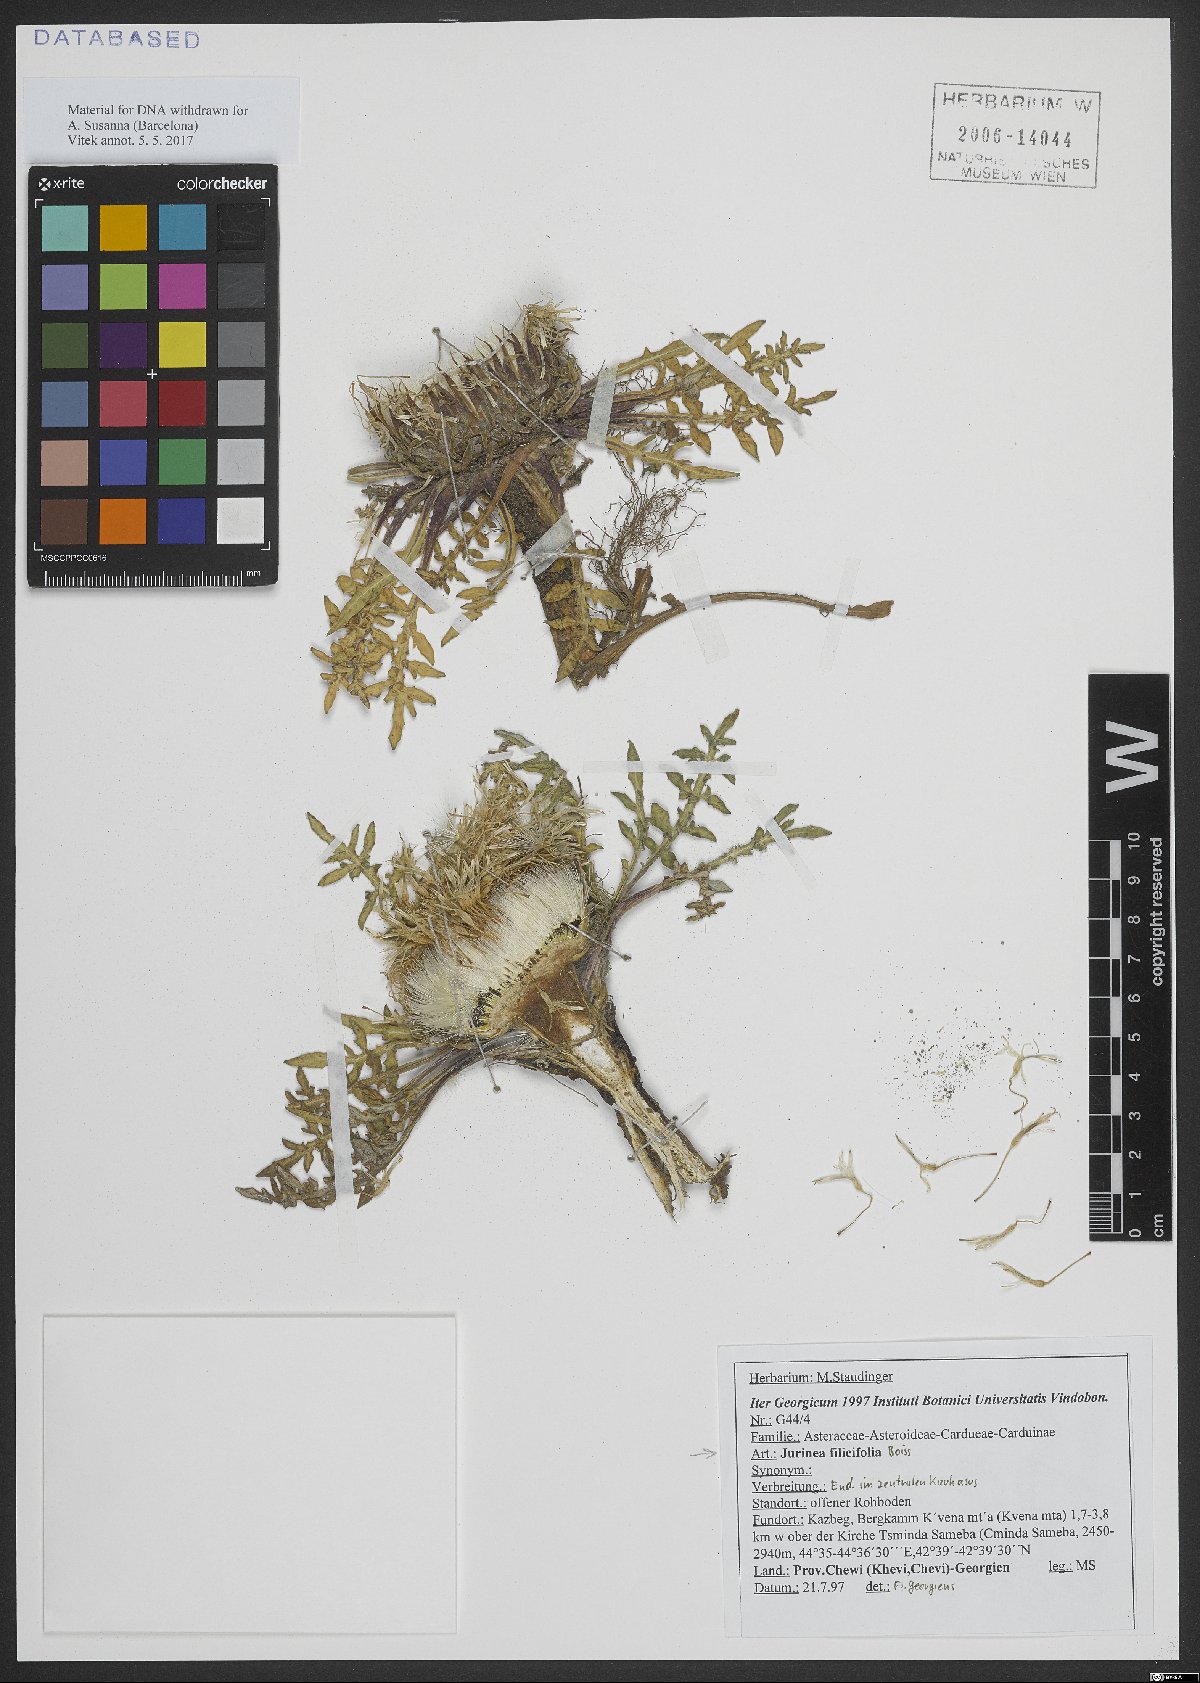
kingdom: Plantae
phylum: Tracheophyta
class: Magnoliopsida
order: Asterales
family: Asteraceae
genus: Jurinea
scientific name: Jurinea filicifolia
